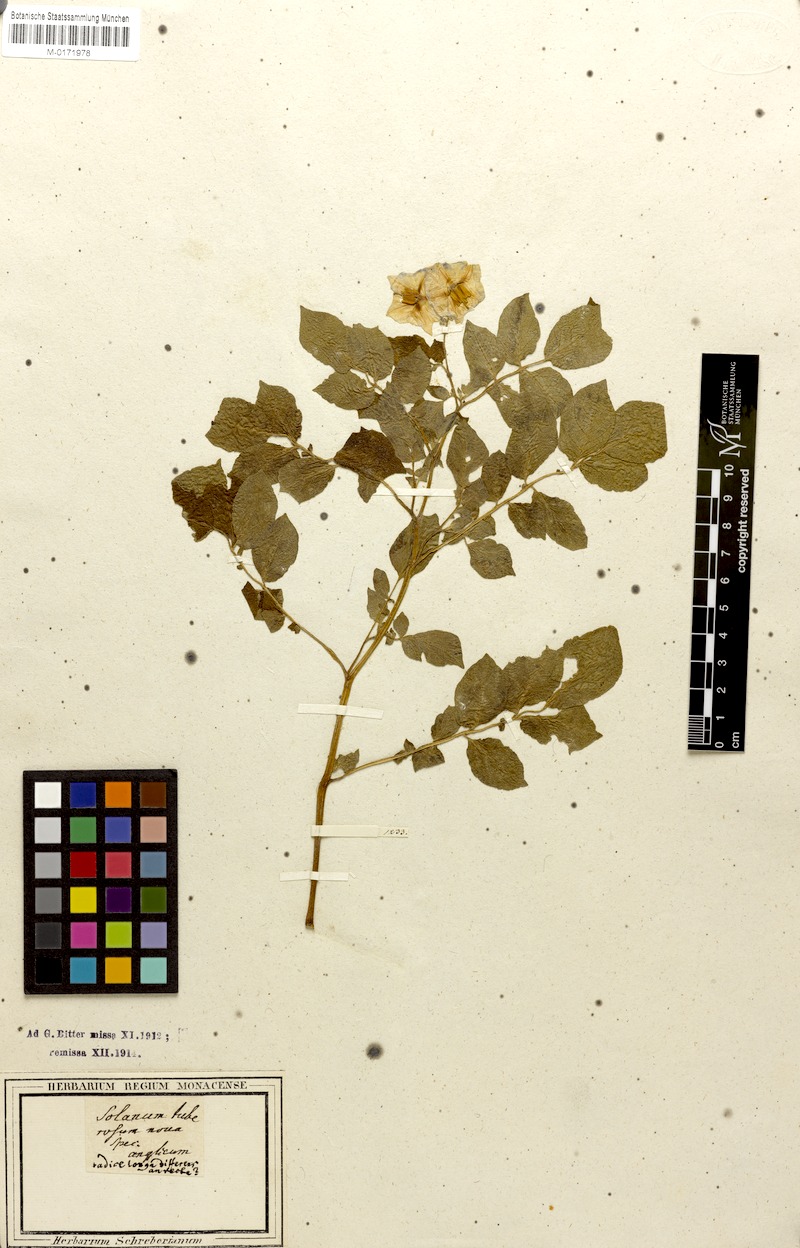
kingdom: Plantae
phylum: Tracheophyta
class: Magnoliopsida
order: Solanales
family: Solanaceae
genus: Solanum
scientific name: Solanum tuberosum
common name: Potato
